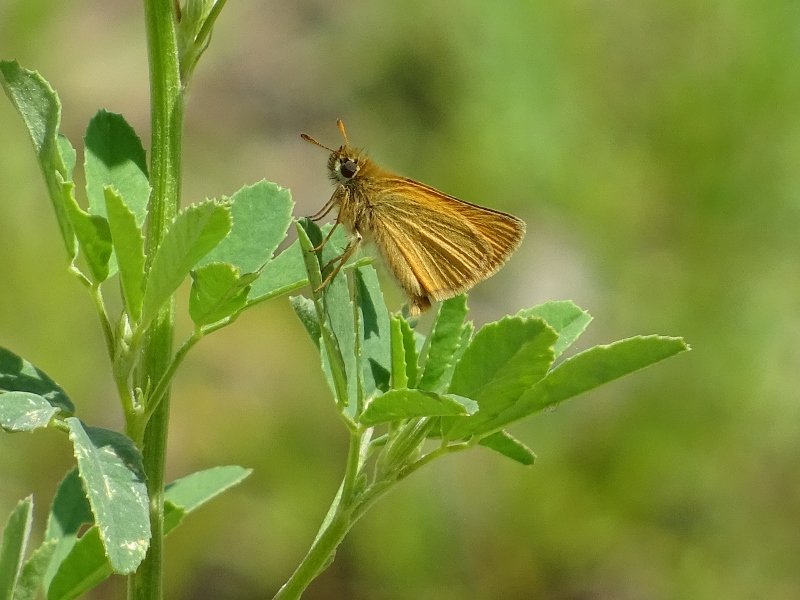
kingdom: Animalia
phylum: Arthropoda
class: Insecta
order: Lepidoptera
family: Hesperiidae
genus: Thymelicus
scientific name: Thymelicus lineola
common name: European Skipper
